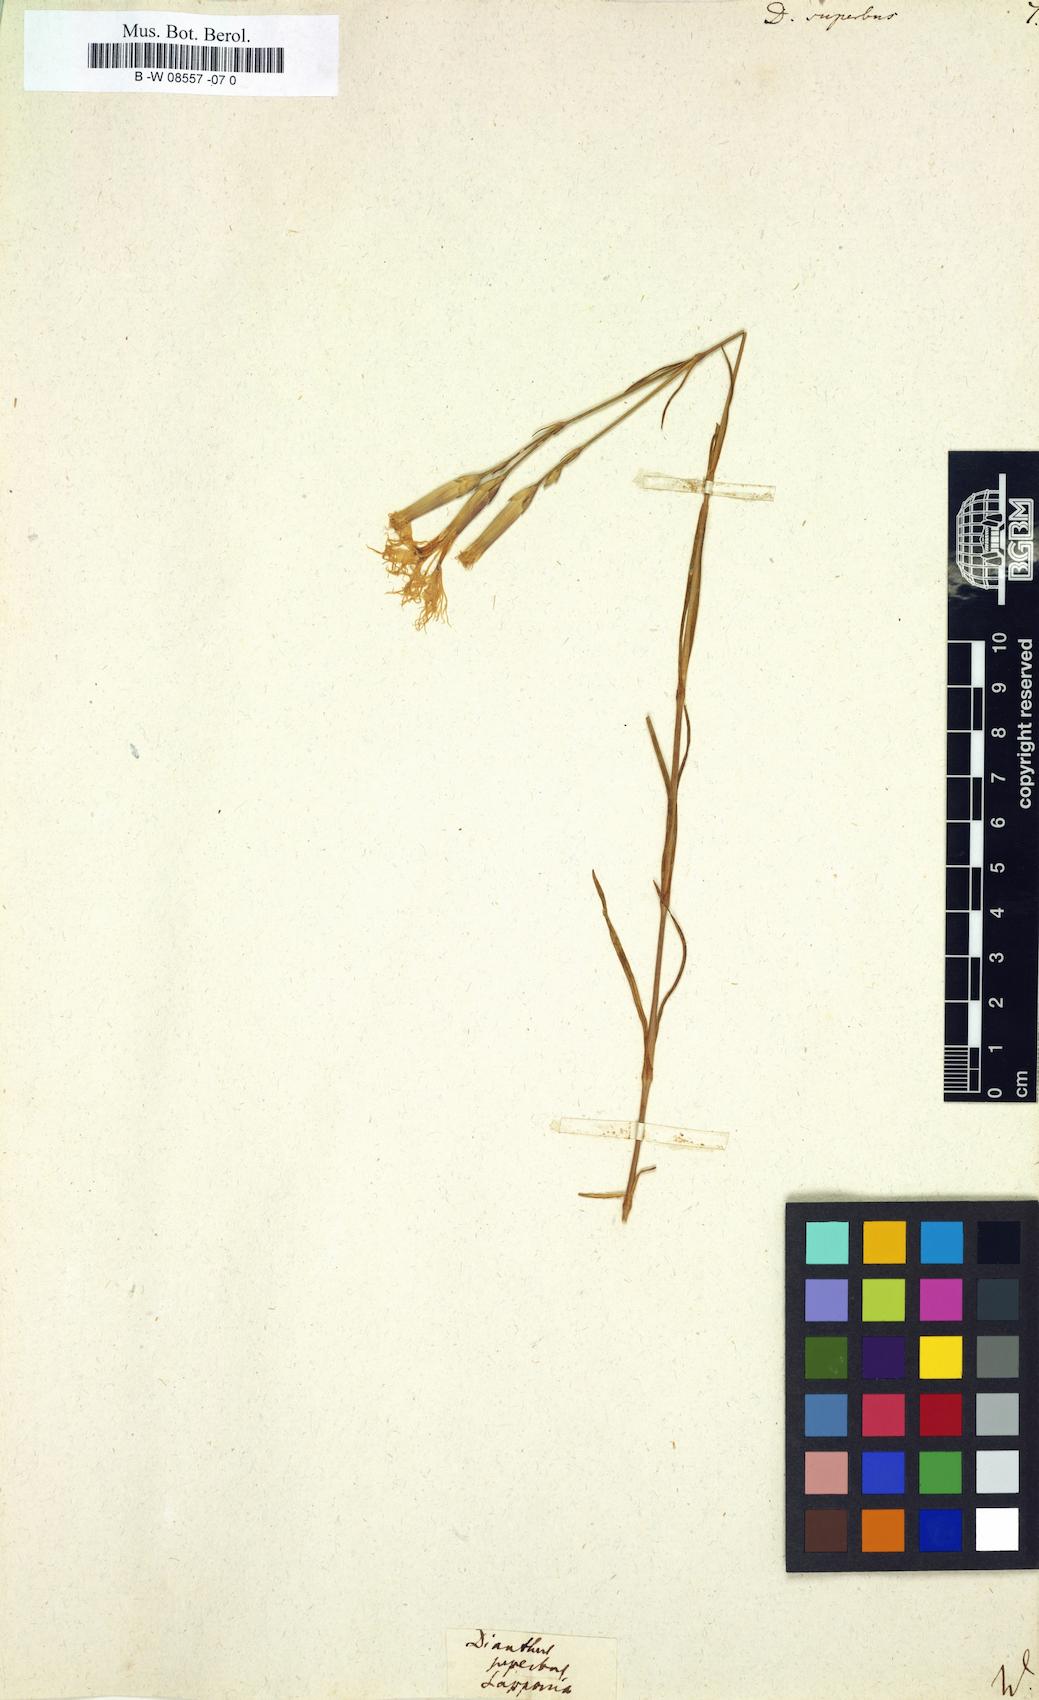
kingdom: Plantae
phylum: Tracheophyta
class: Magnoliopsida
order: Caryophyllales
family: Caryophyllaceae
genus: Dianthus
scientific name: Dianthus superbus
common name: Fringed pink
